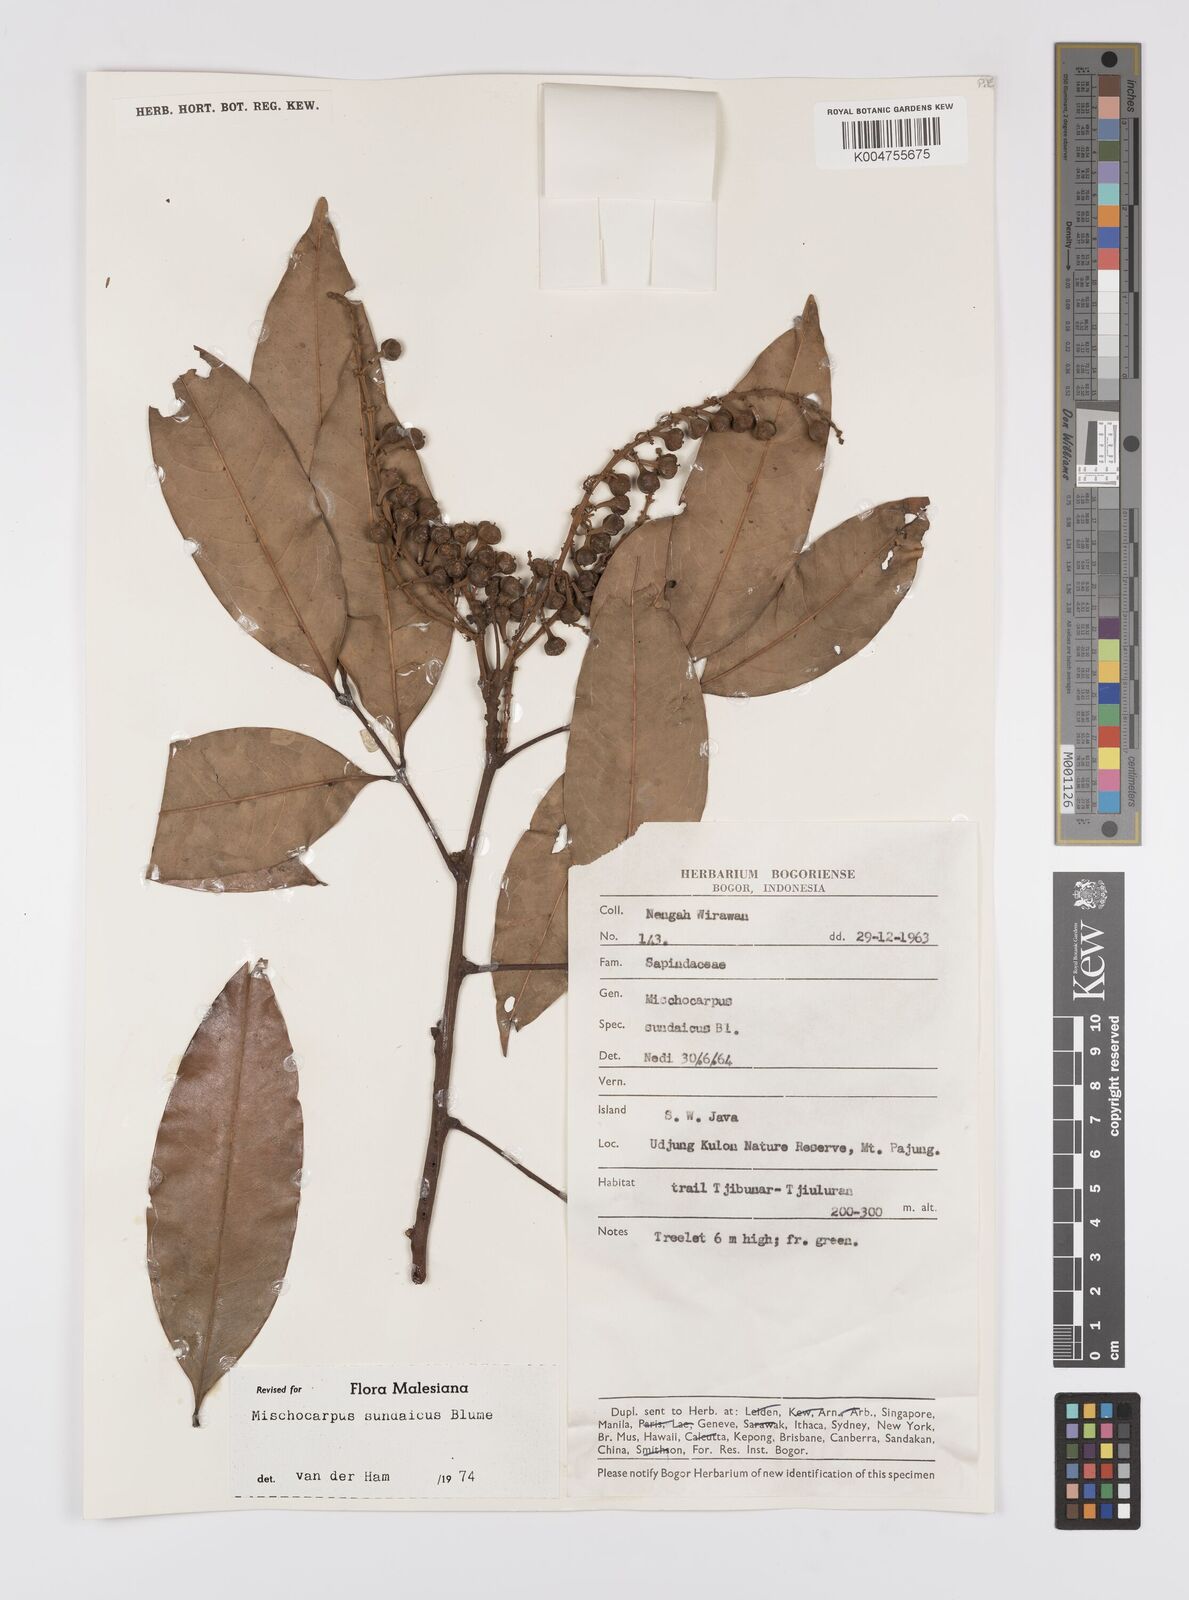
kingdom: Plantae
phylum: Tracheophyta
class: Magnoliopsida
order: Sapindales
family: Sapindaceae
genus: Mischocarpus
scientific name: Mischocarpus sundaicus
